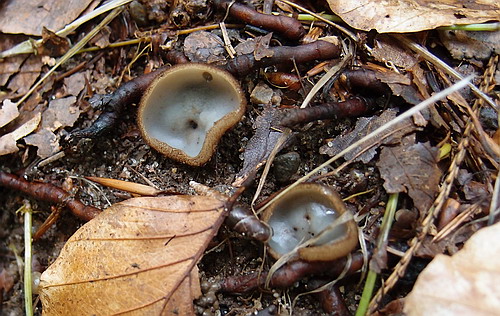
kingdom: Fungi
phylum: Ascomycota
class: Pezizomycetes
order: Pezizales
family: Pyronemataceae
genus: Humaria
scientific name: Humaria hemisphaerica
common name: halvkugleformet børstebæger
